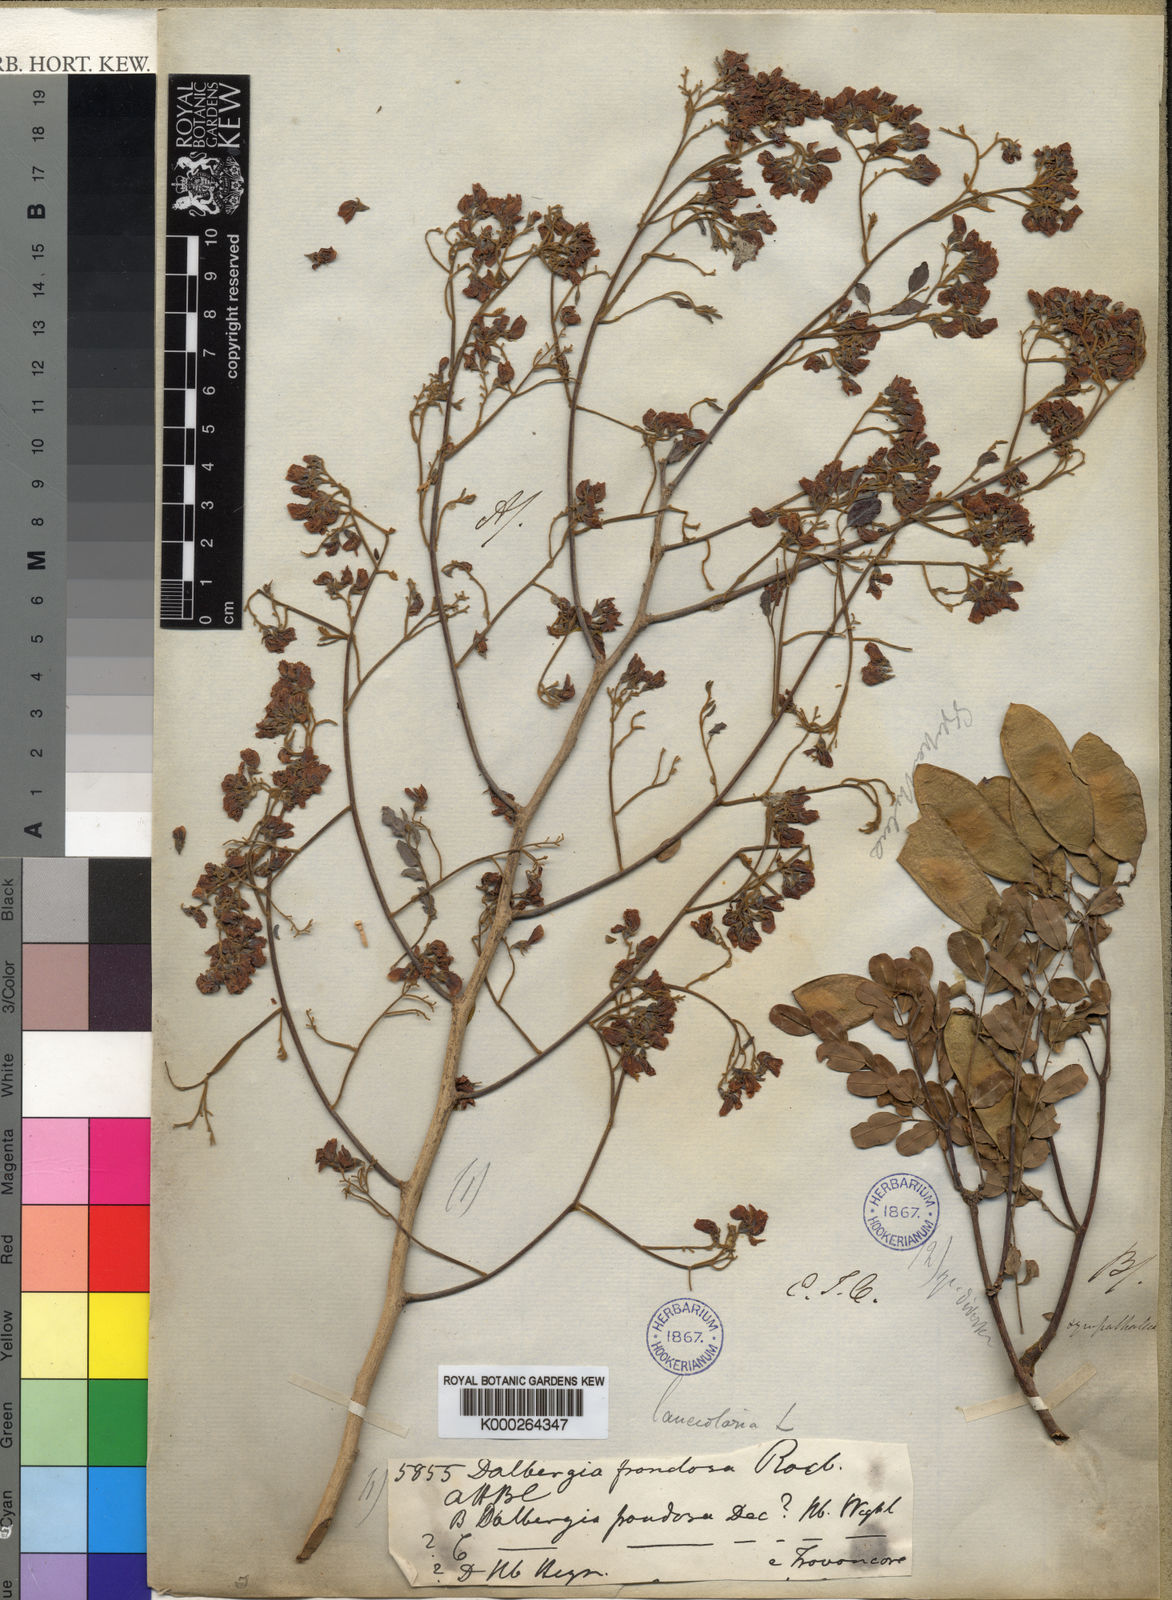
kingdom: Plantae
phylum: Tracheophyta
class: Magnoliopsida
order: Fabales
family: Fabaceae
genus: Dalbergia
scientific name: Dalbergia lanceolaria
